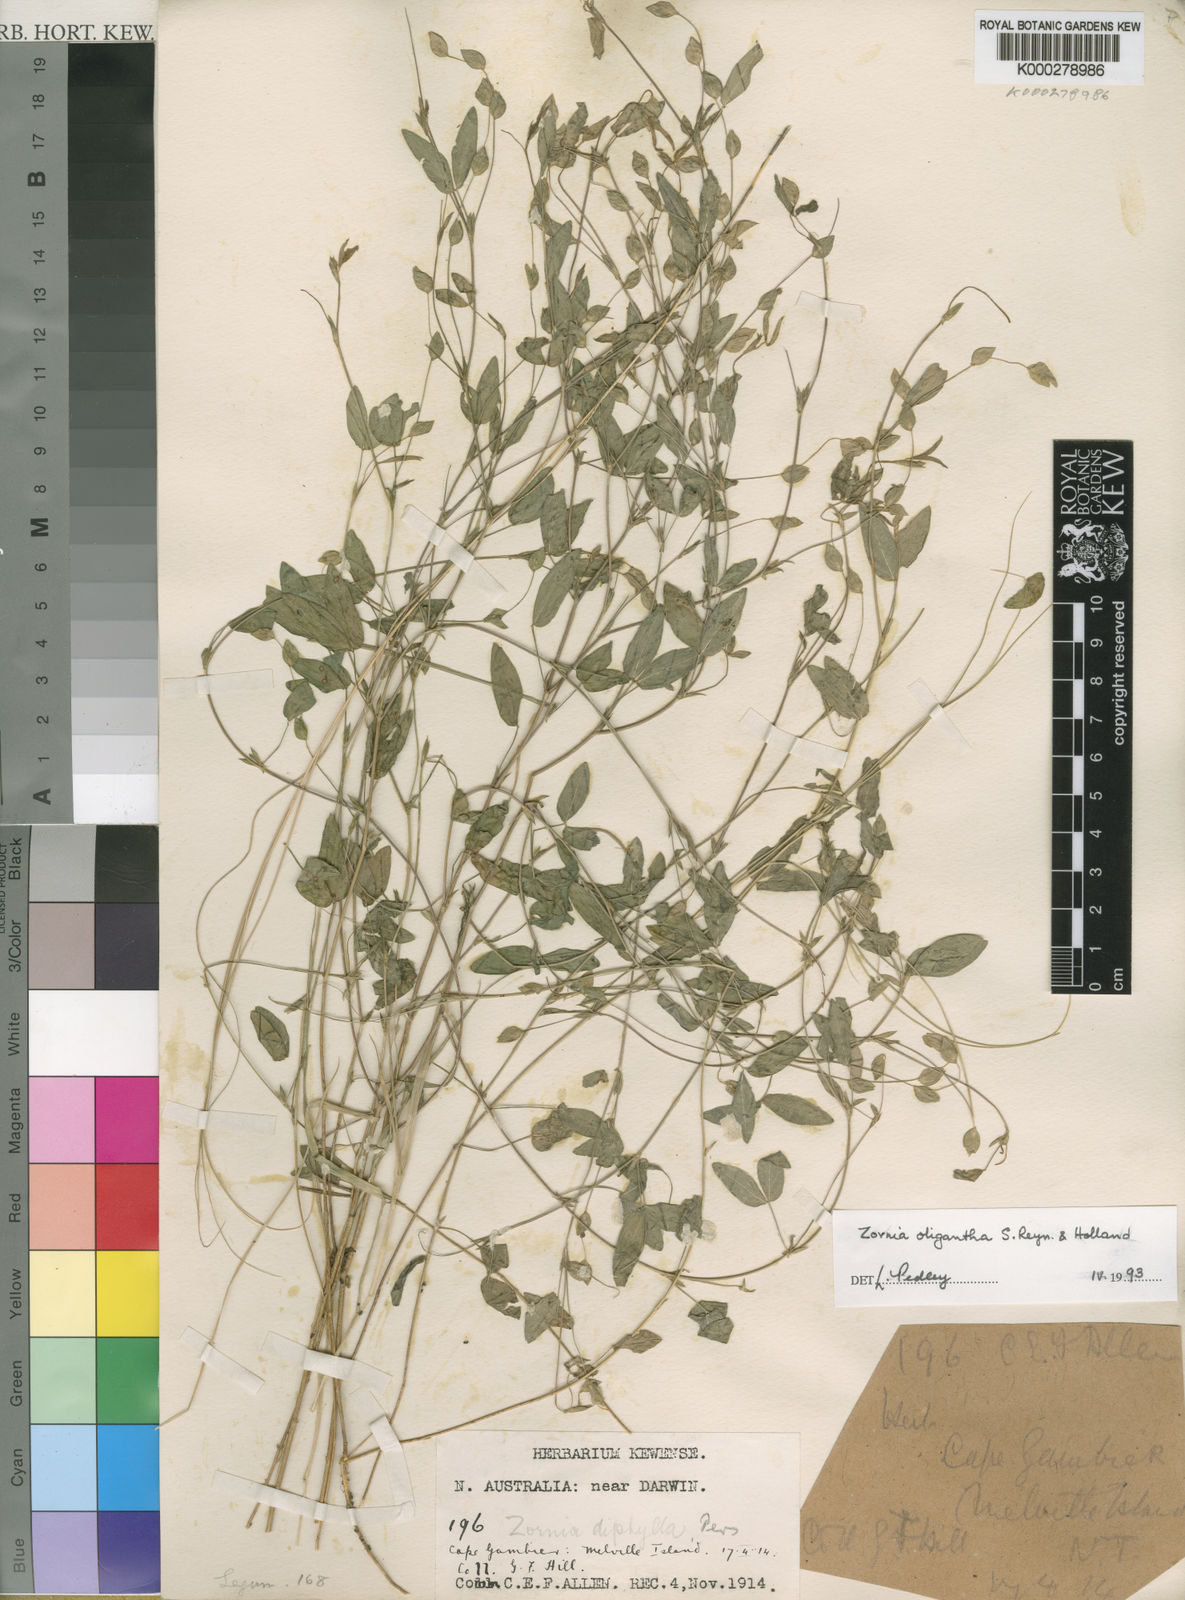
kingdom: Plantae
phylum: Tracheophyta
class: Magnoliopsida
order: Fabales
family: Fabaceae
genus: Zornia
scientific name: Zornia oligantha
